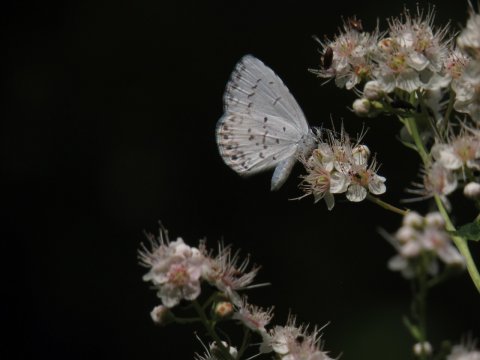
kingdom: Animalia
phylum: Arthropoda
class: Insecta
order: Lepidoptera
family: Lycaenidae
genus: Cyaniris
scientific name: Cyaniris neglecta
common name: Summer Azure
